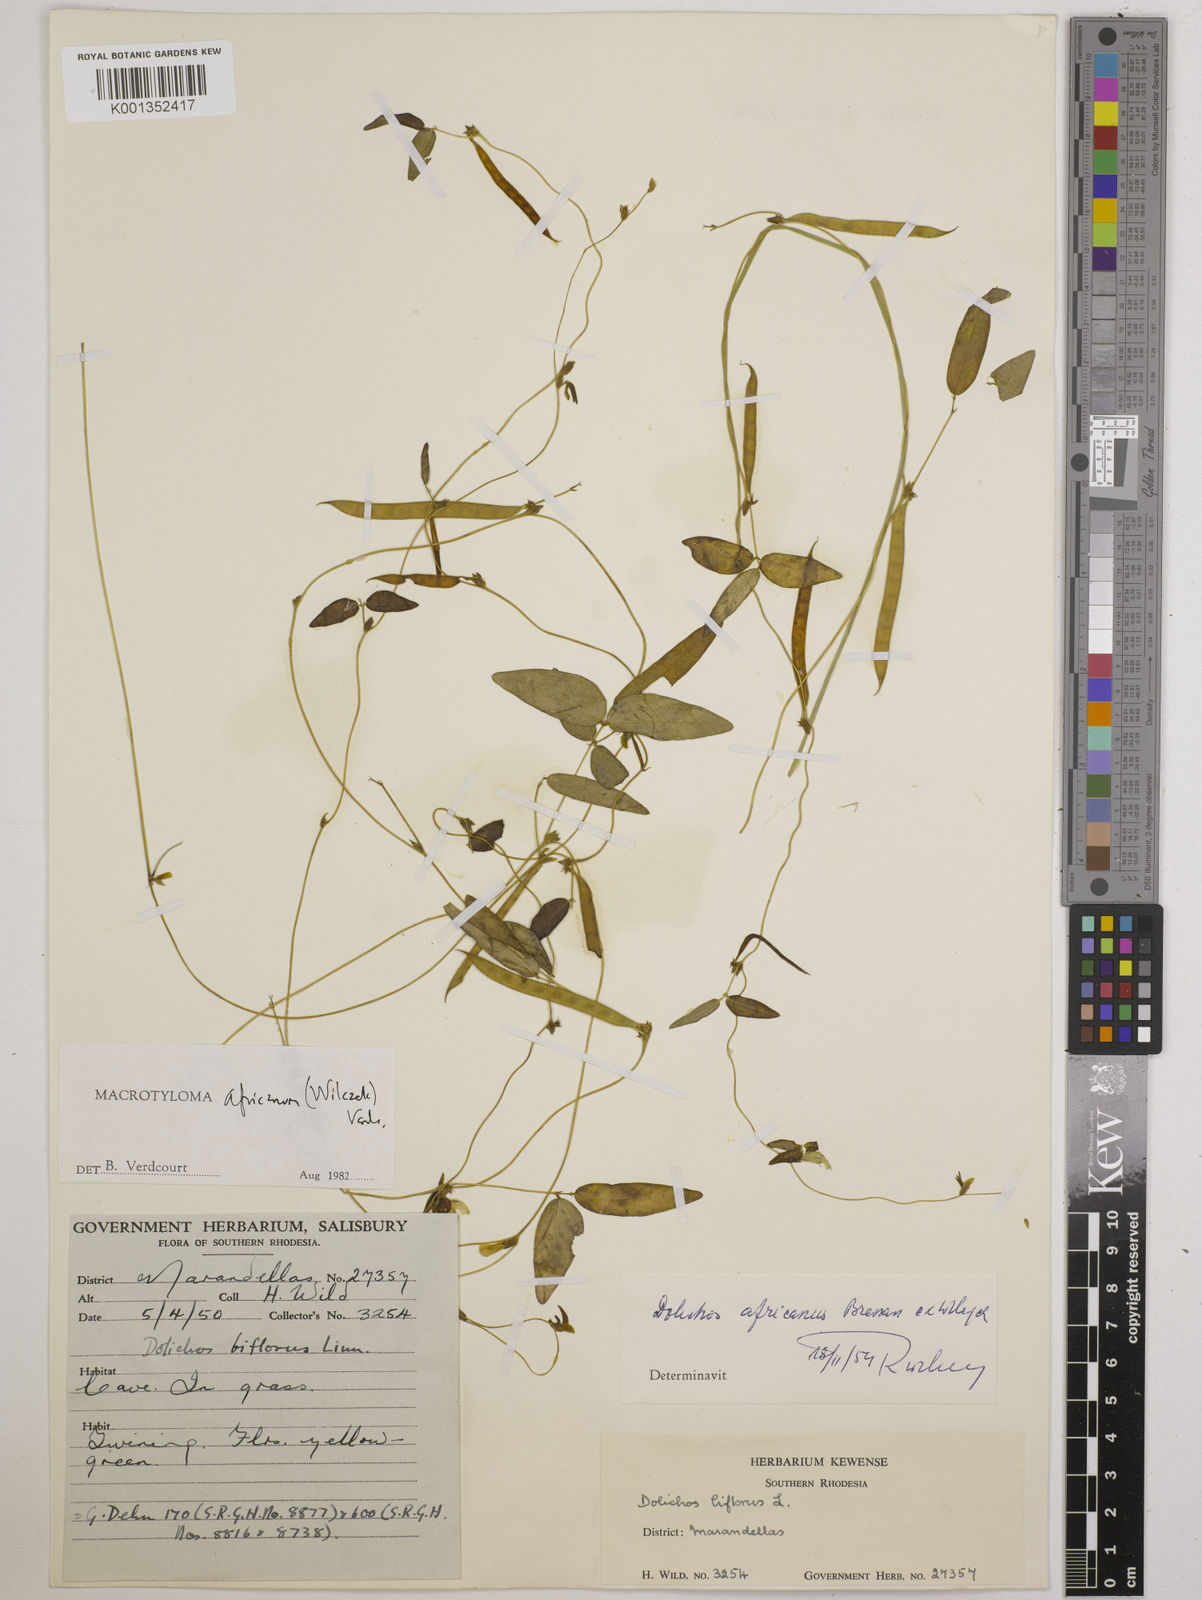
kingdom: Plantae
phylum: Tracheophyta
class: Magnoliopsida
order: Fabales
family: Fabaceae
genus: Macrotyloma
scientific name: Macrotyloma africanum
